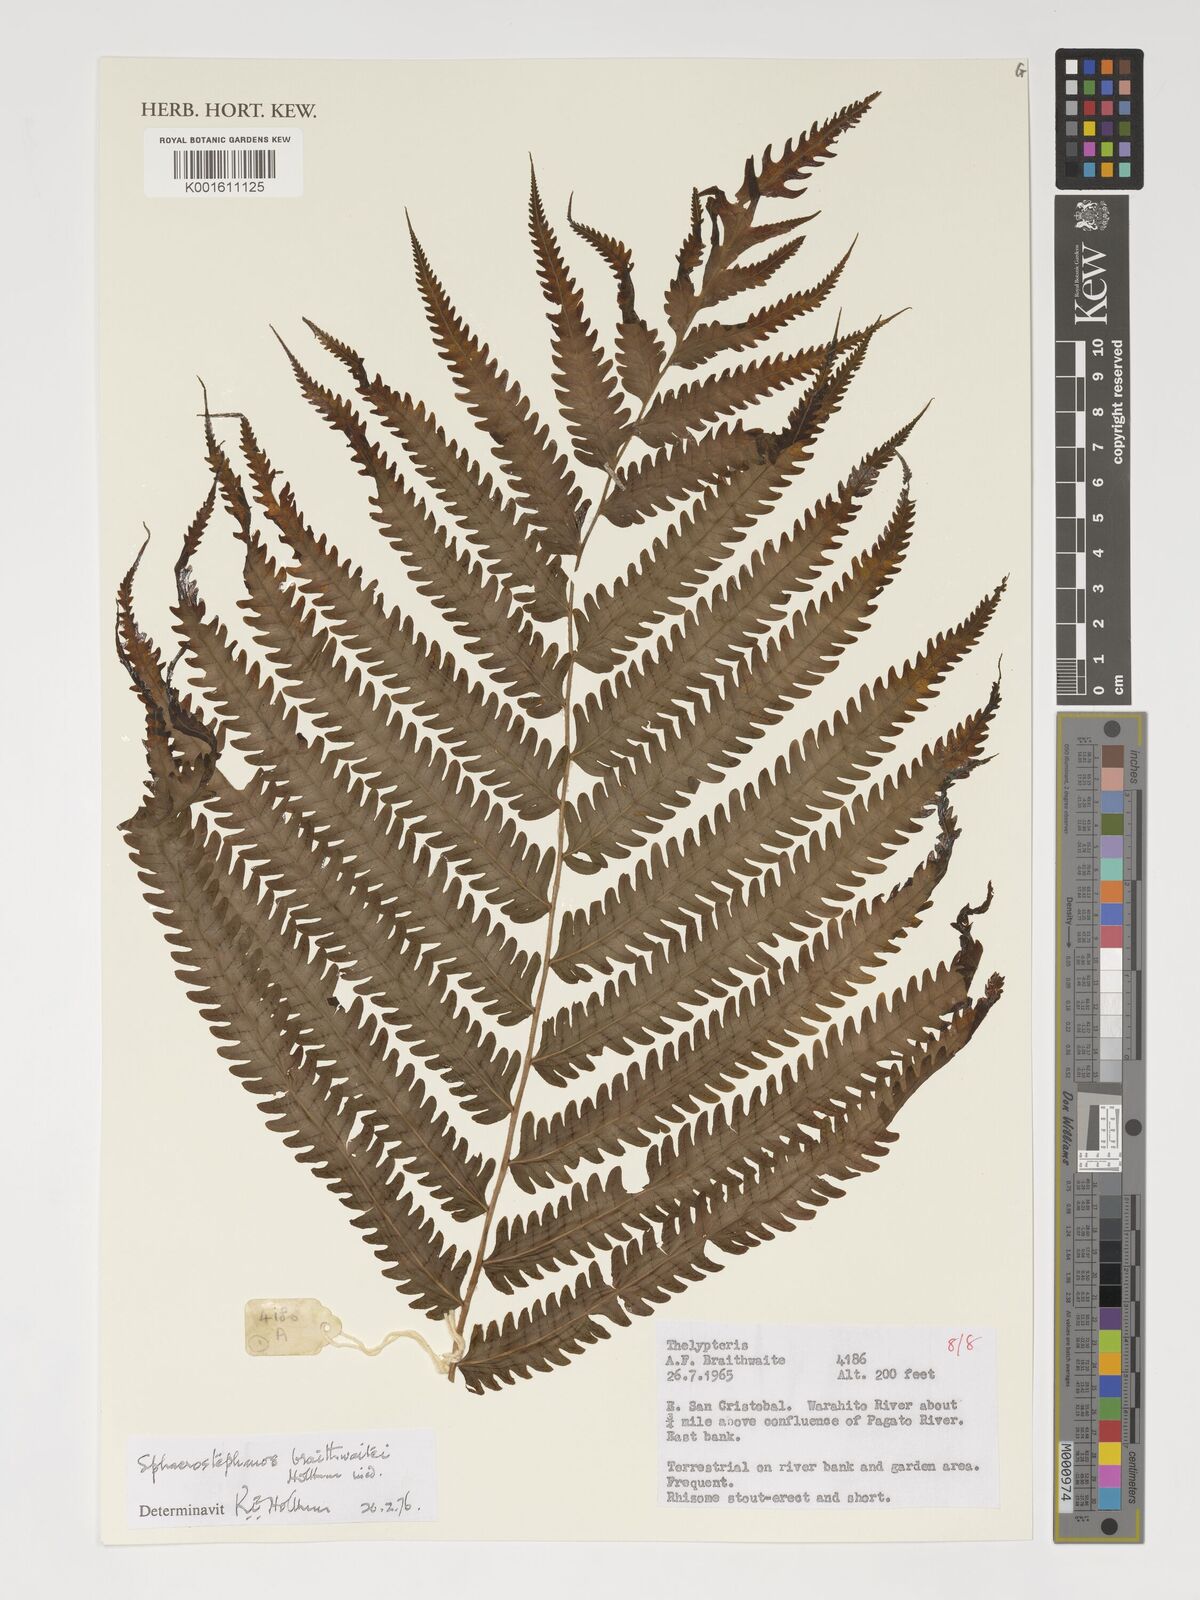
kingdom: Plantae
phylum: Tracheophyta
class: Polypodiopsida
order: Polypodiales
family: Thelypteridaceae
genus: Sphaerostephanos
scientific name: Sphaerostephanos braithwaitei
